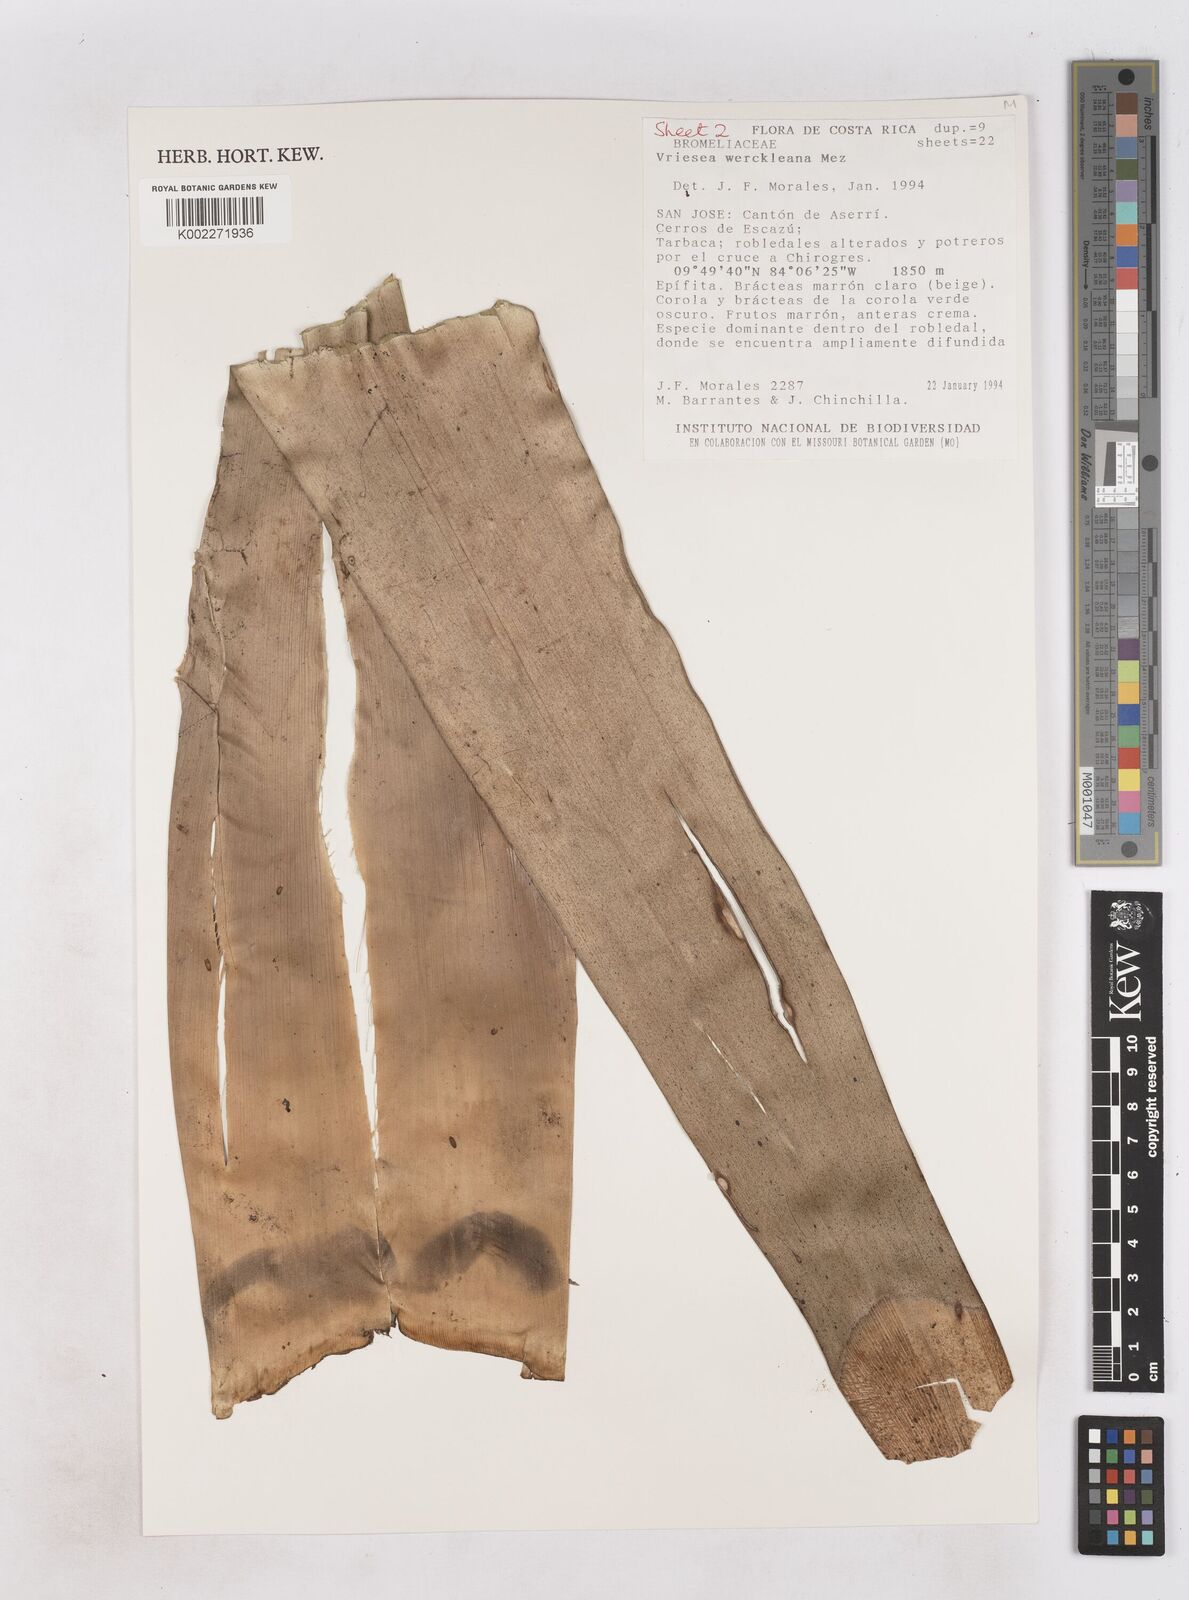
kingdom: Plantae
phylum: Tracheophyta
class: Liliopsida
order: Poales
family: Bromeliaceae
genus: Werauhia
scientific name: Werauhia werckleana
